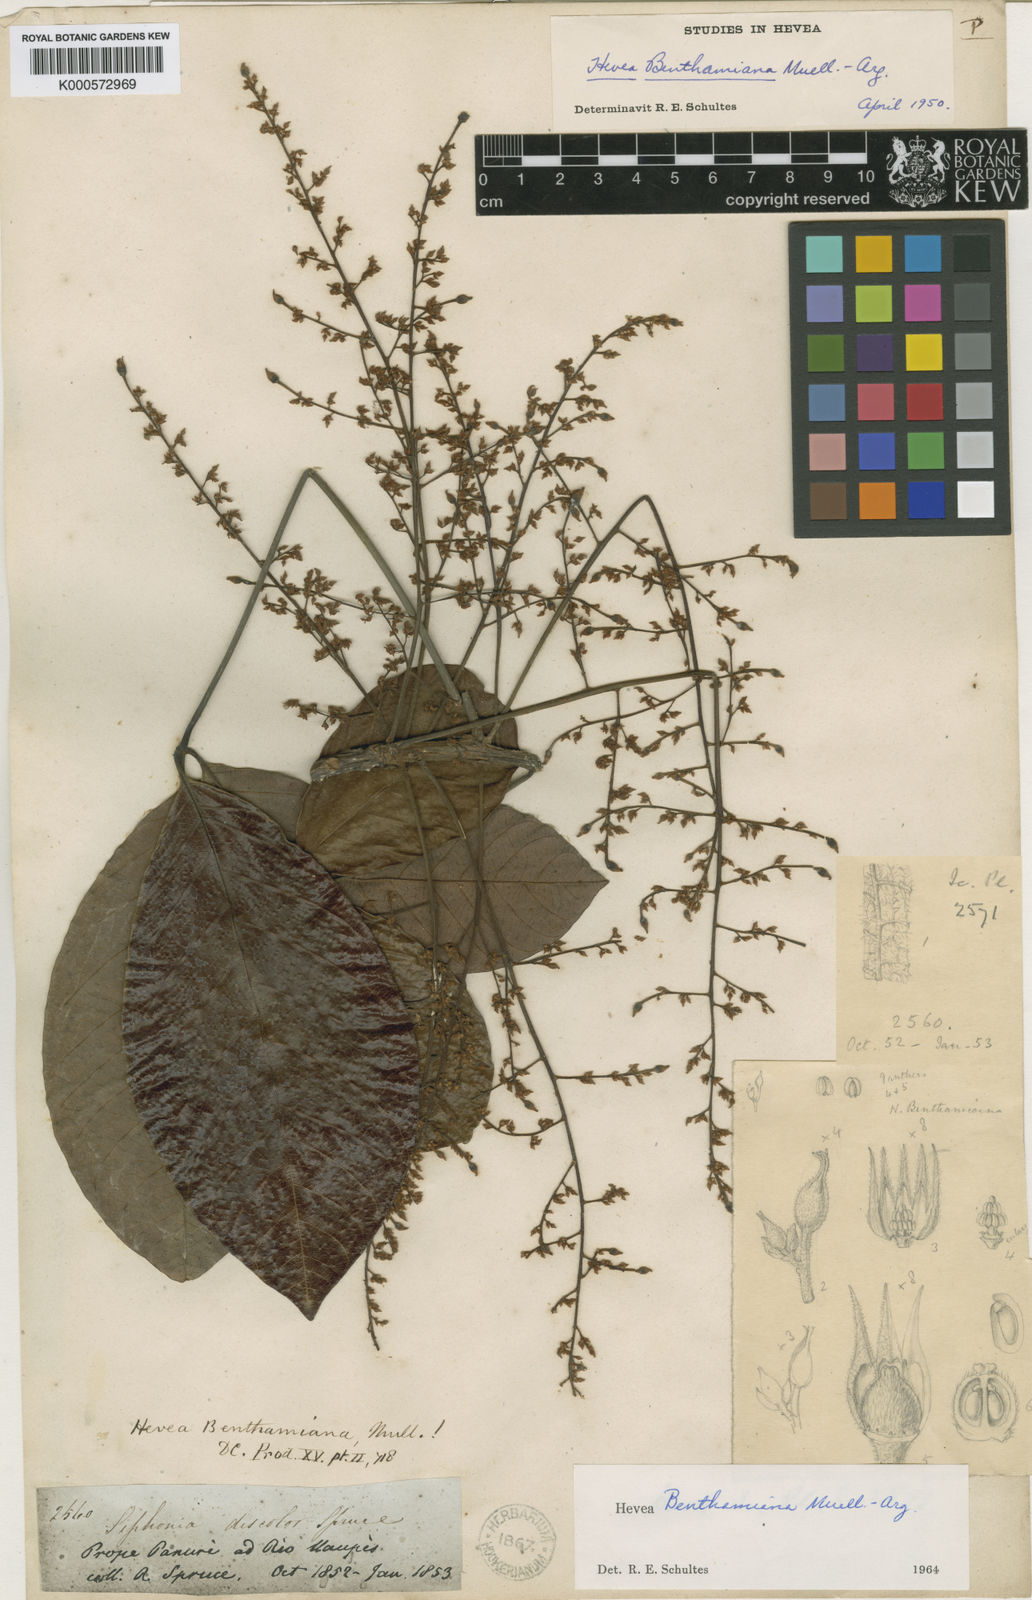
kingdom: Plantae
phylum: Tracheophyta
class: Magnoliopsida
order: Malpighiales
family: Euphorbiaceae
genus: Hevea
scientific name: Hevea
